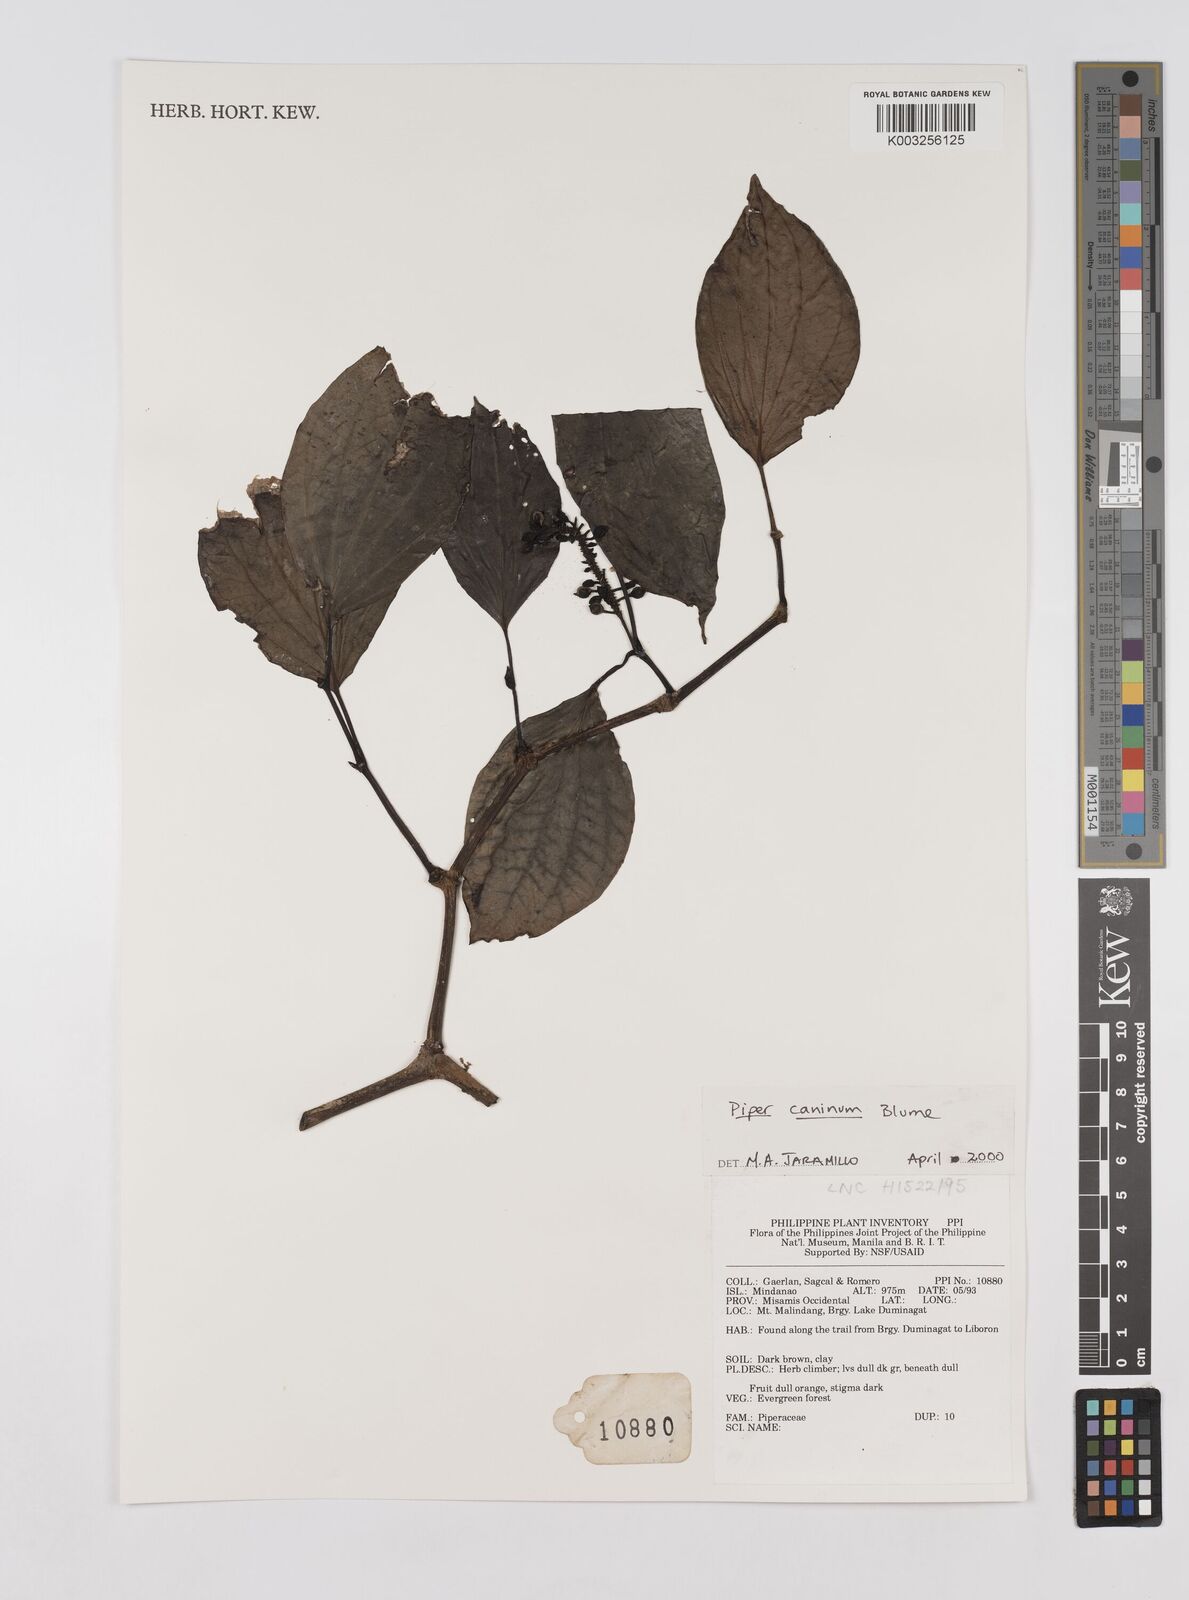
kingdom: Plantae
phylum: Tracheophyta
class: Magnoliopsida
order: Piperales
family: Piperaceae
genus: Piper
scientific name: Piper lanatum
